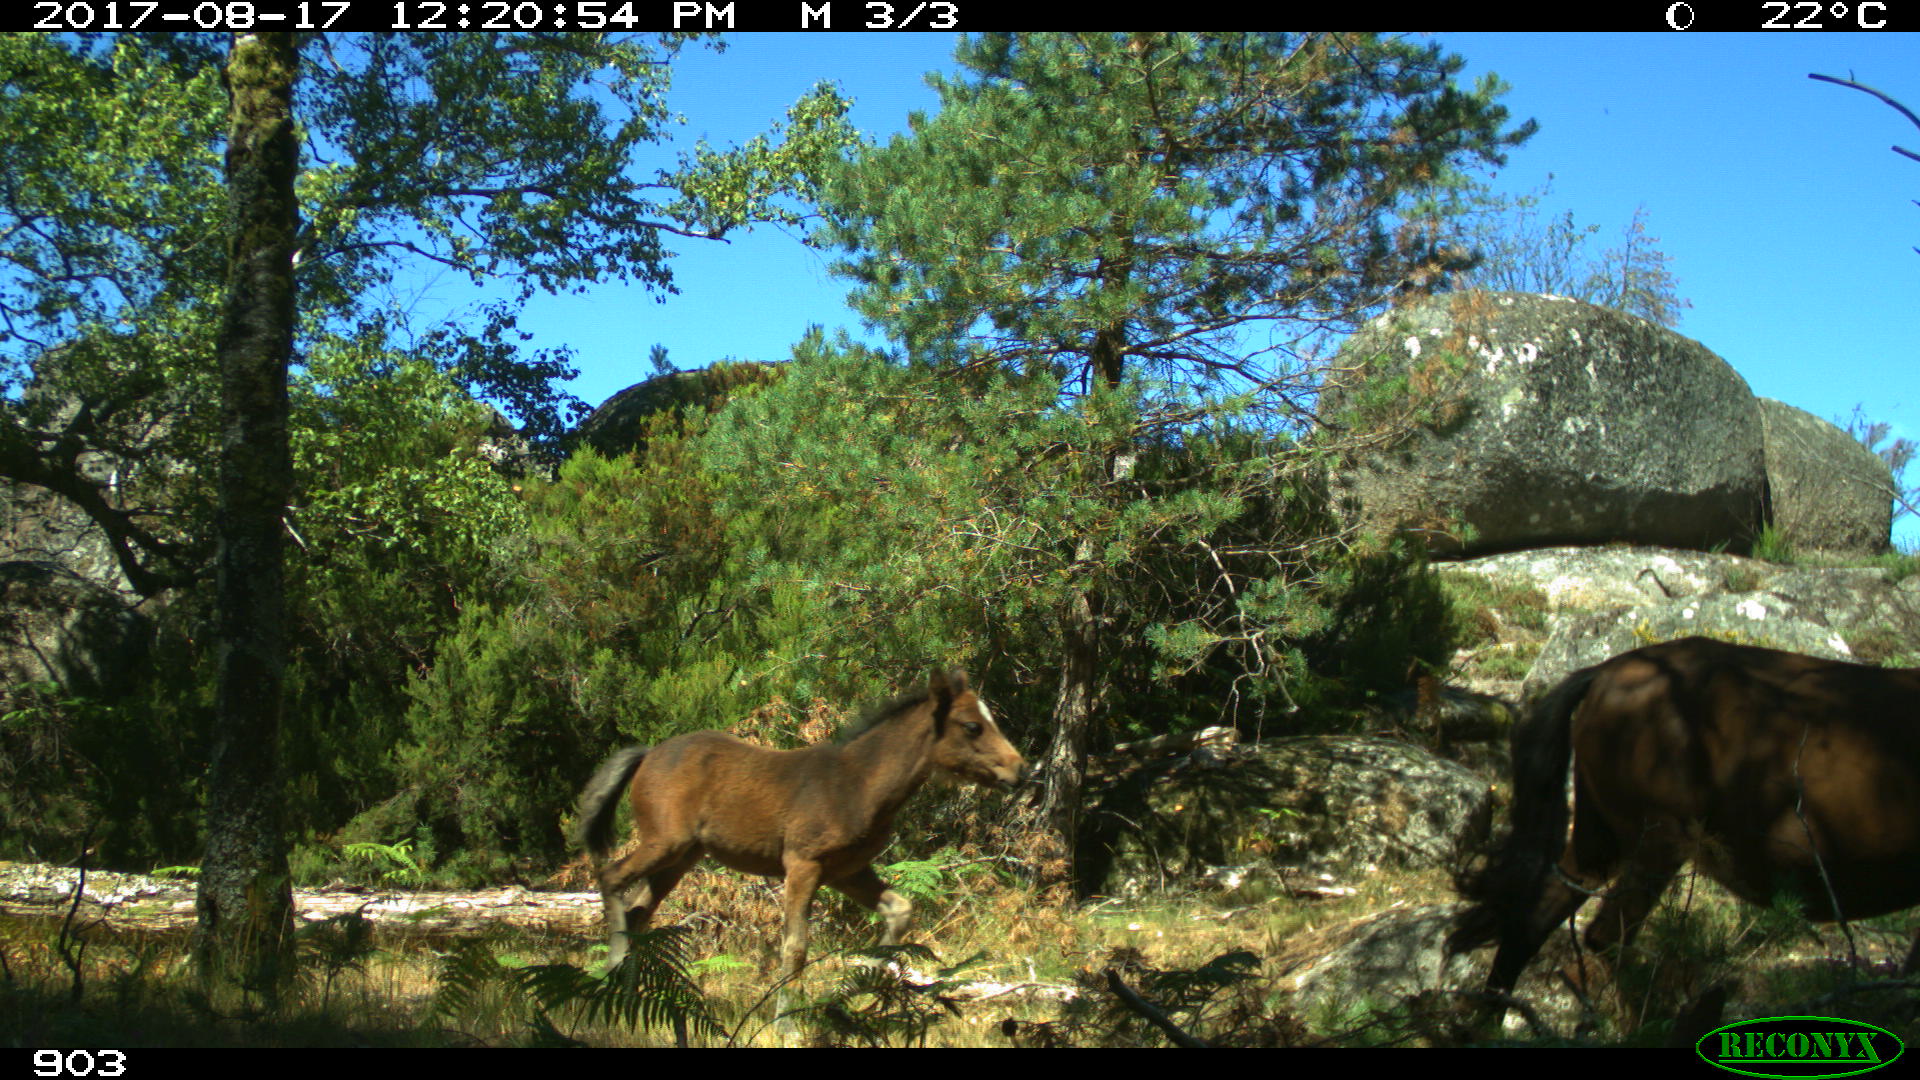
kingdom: Animalia
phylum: Chordata
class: Mammalia
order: Perissodactyla
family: Equidae
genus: Equus
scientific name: Equus caballus
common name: Horse
